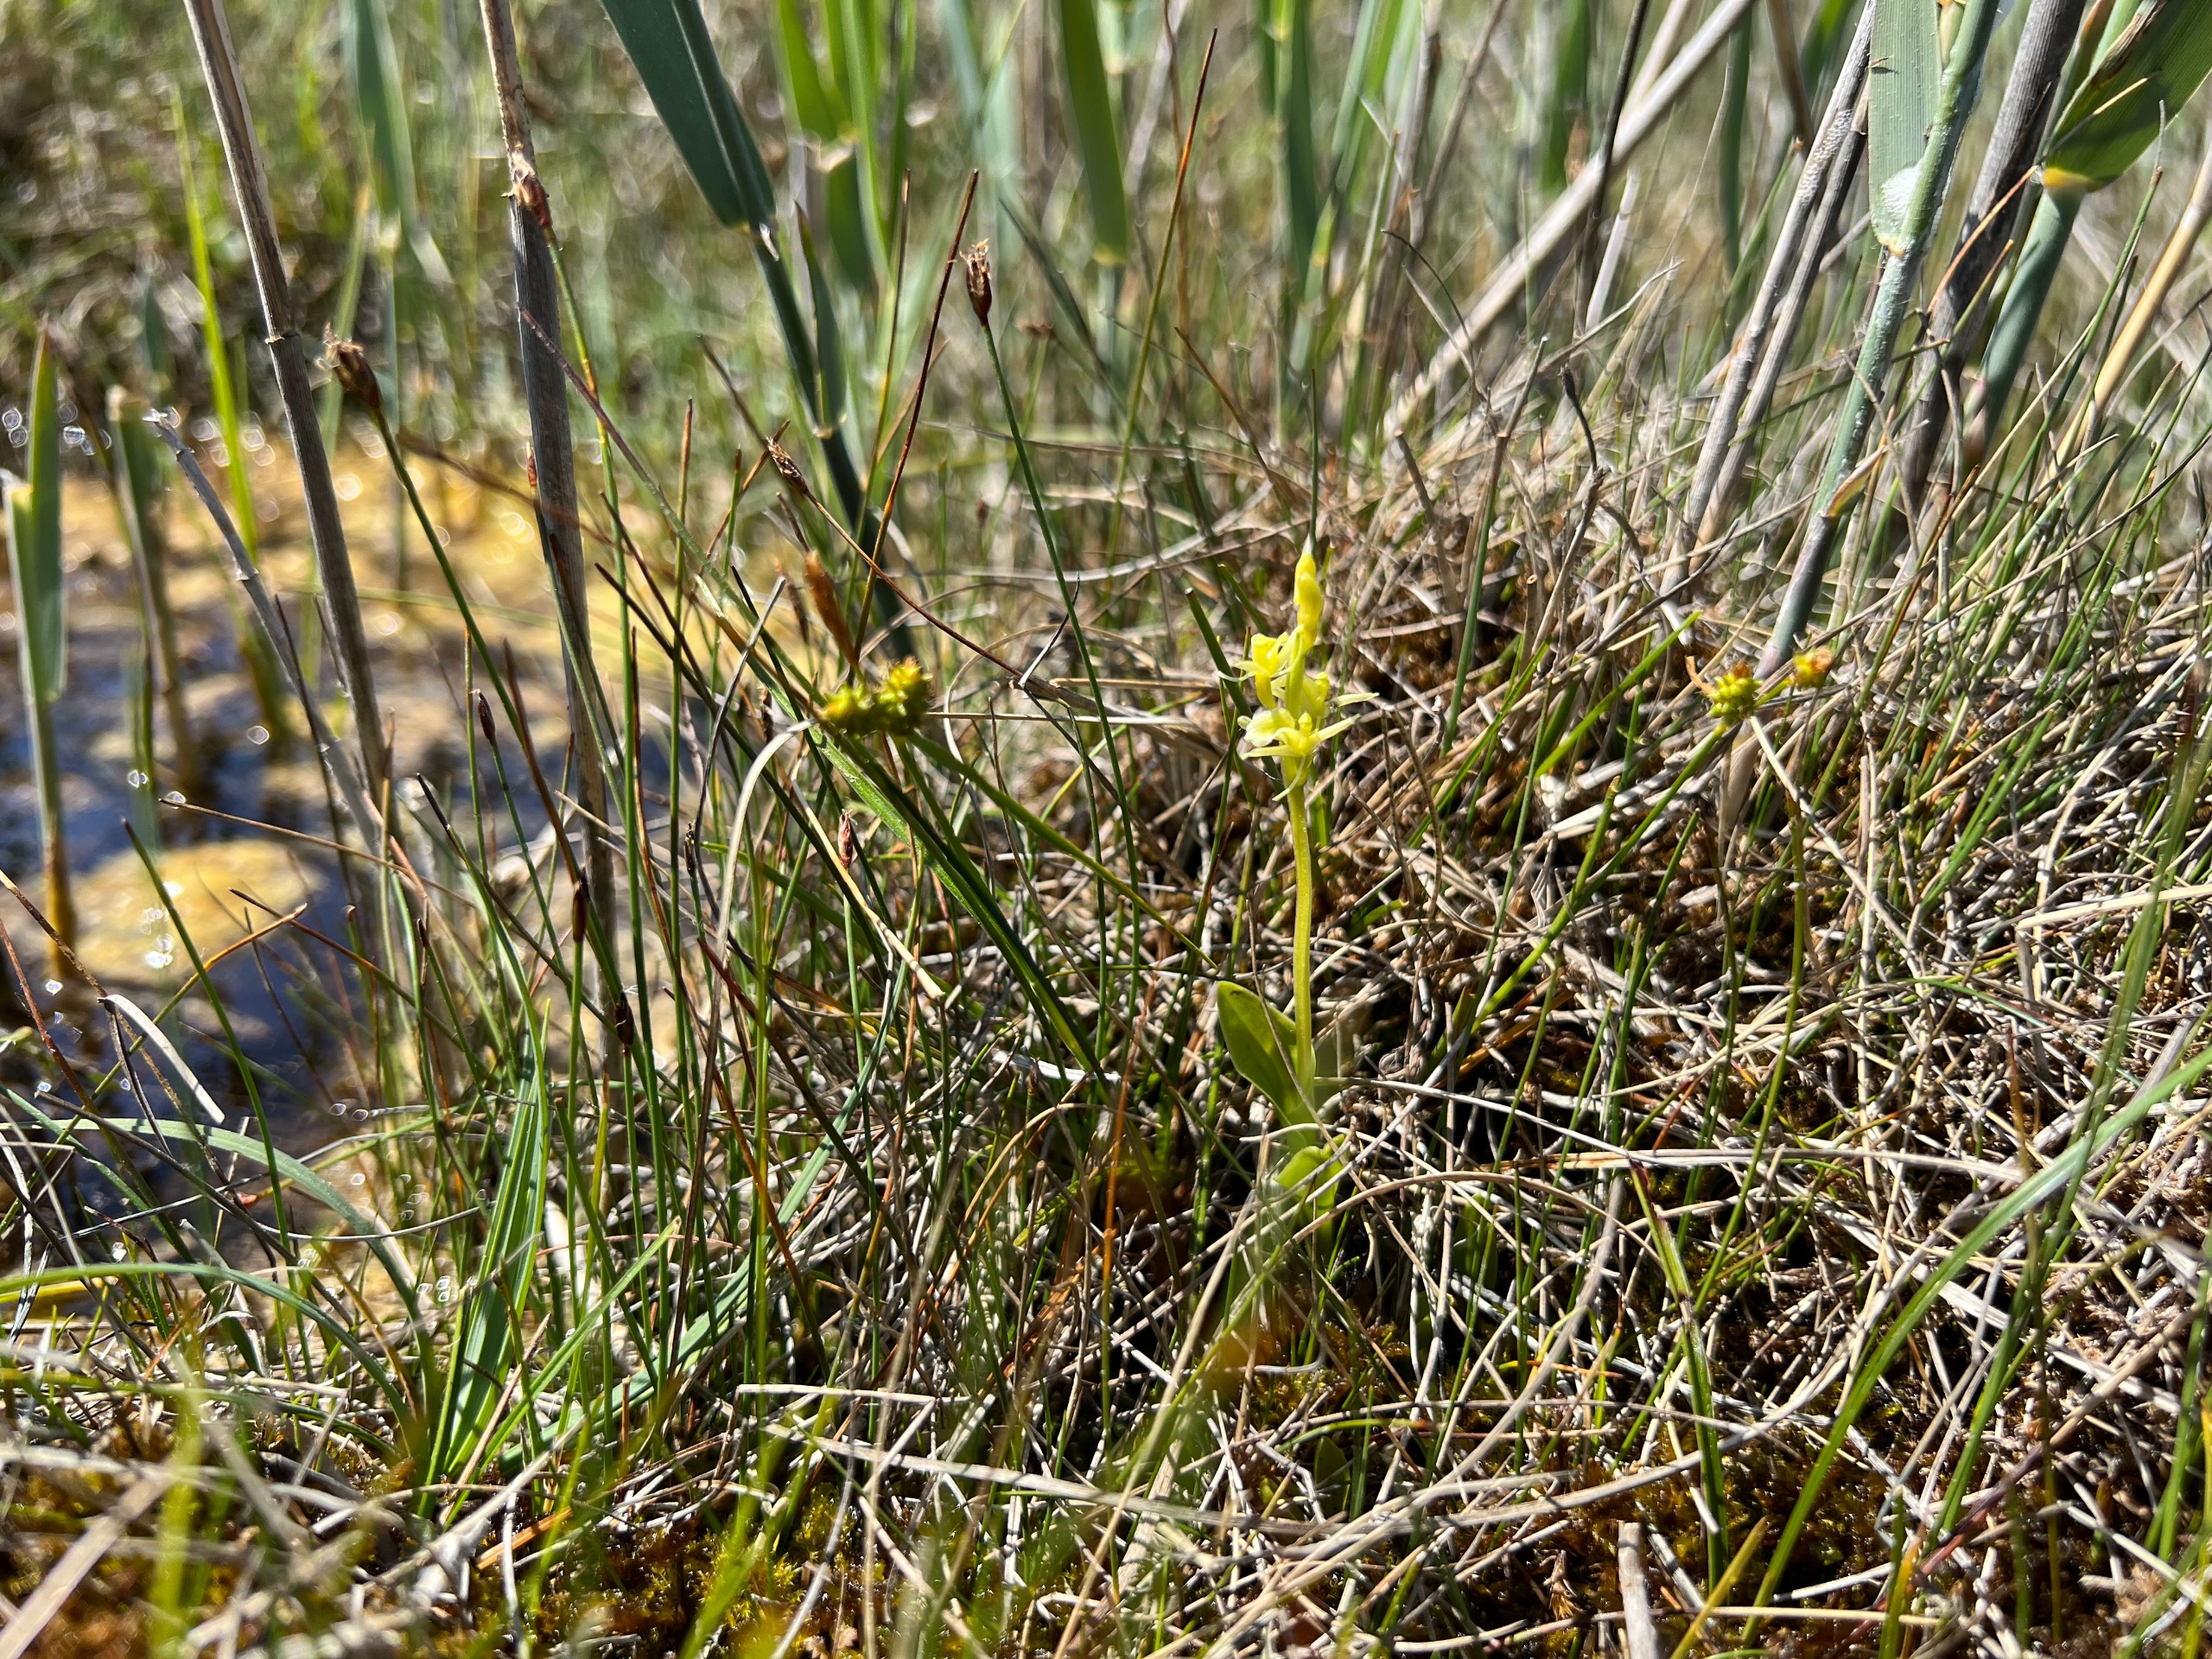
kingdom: Animalia
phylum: Arthropoda
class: Insecta
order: Coleoptera
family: Curculionidae
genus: Liparis
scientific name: Liparis loeselii
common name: Mygblomst
